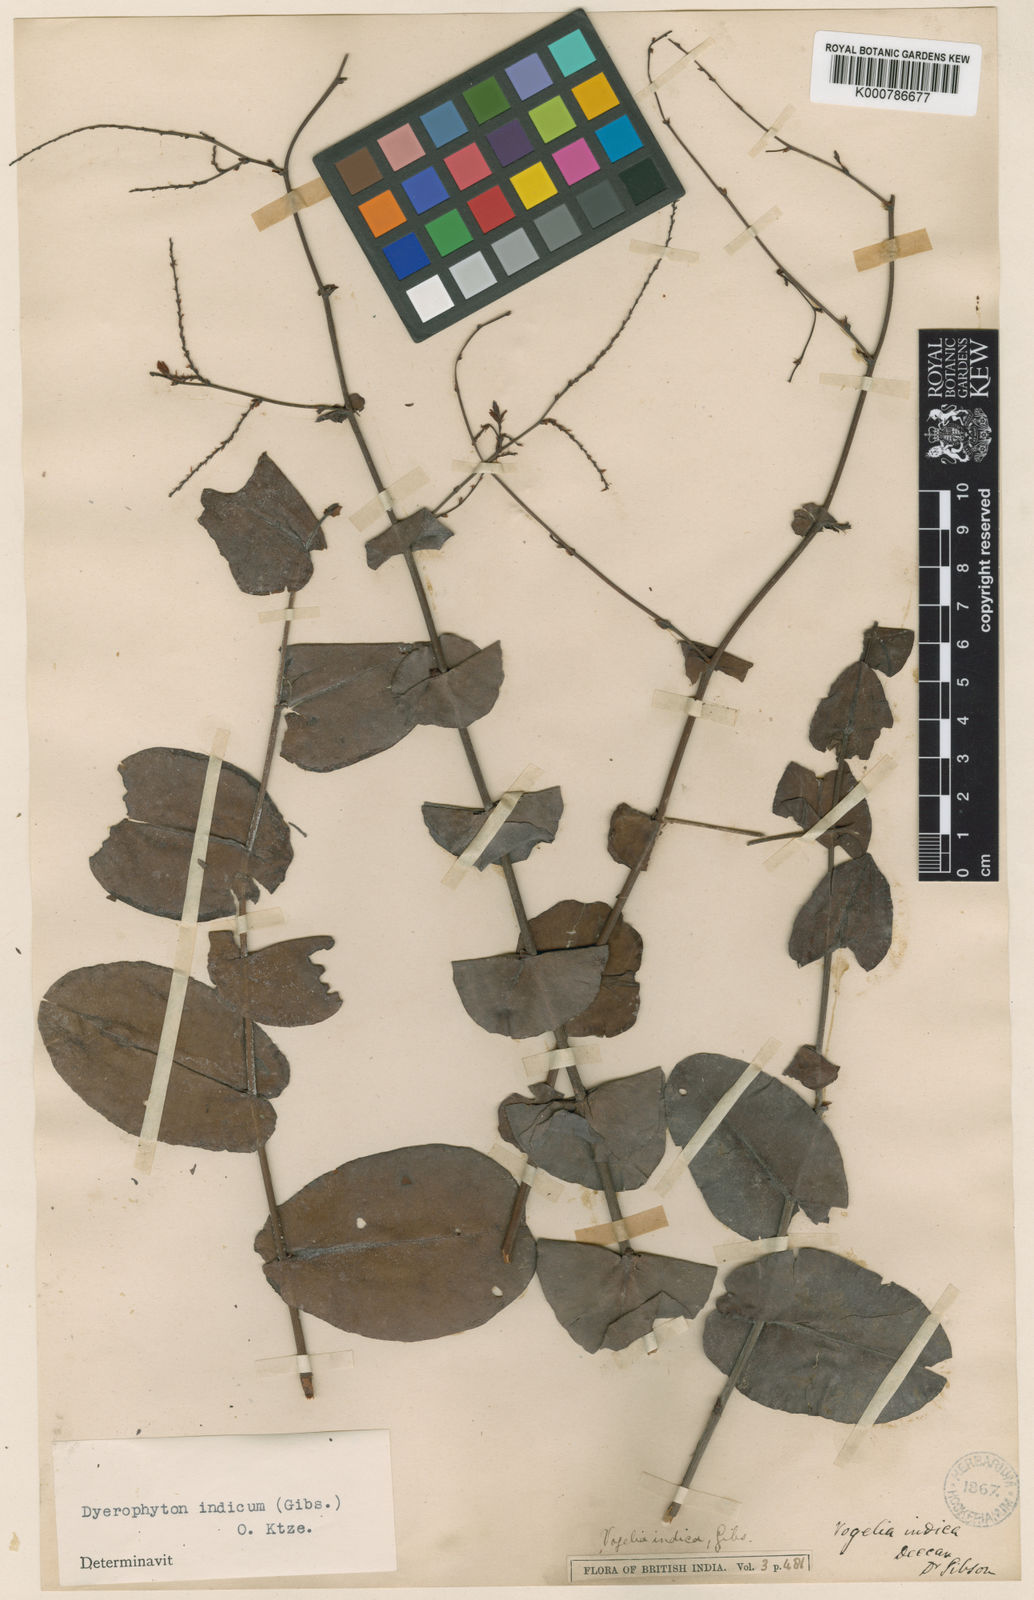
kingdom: Plantae
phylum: Tracheophyta
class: Magnoliopsida
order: Caryophyllales
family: Plumbaginaceae
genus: Dyerophytum
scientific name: Dyerophytum indicum
